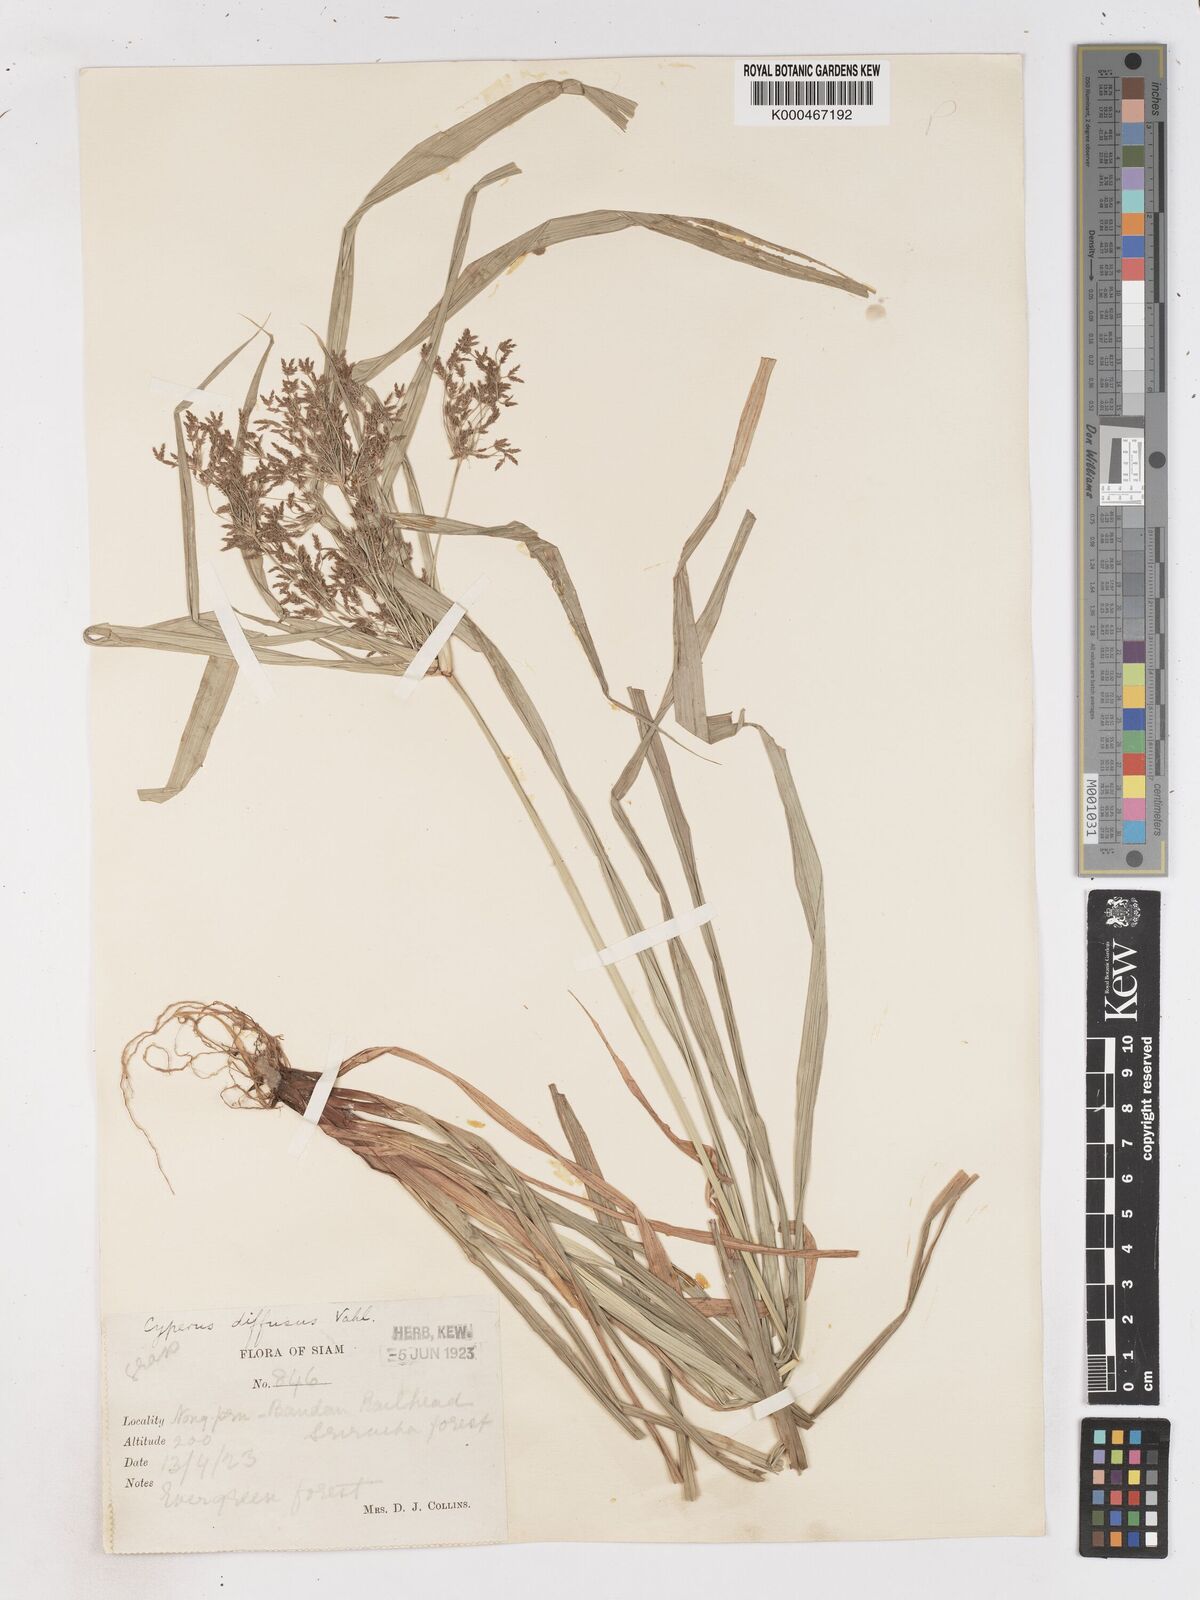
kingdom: Plantae
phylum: Tracheophyta
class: Liliopsida
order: Poales
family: Cyperaceae
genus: Cyperus
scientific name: Cyperus diffusus
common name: Dwarf umbrella grass
